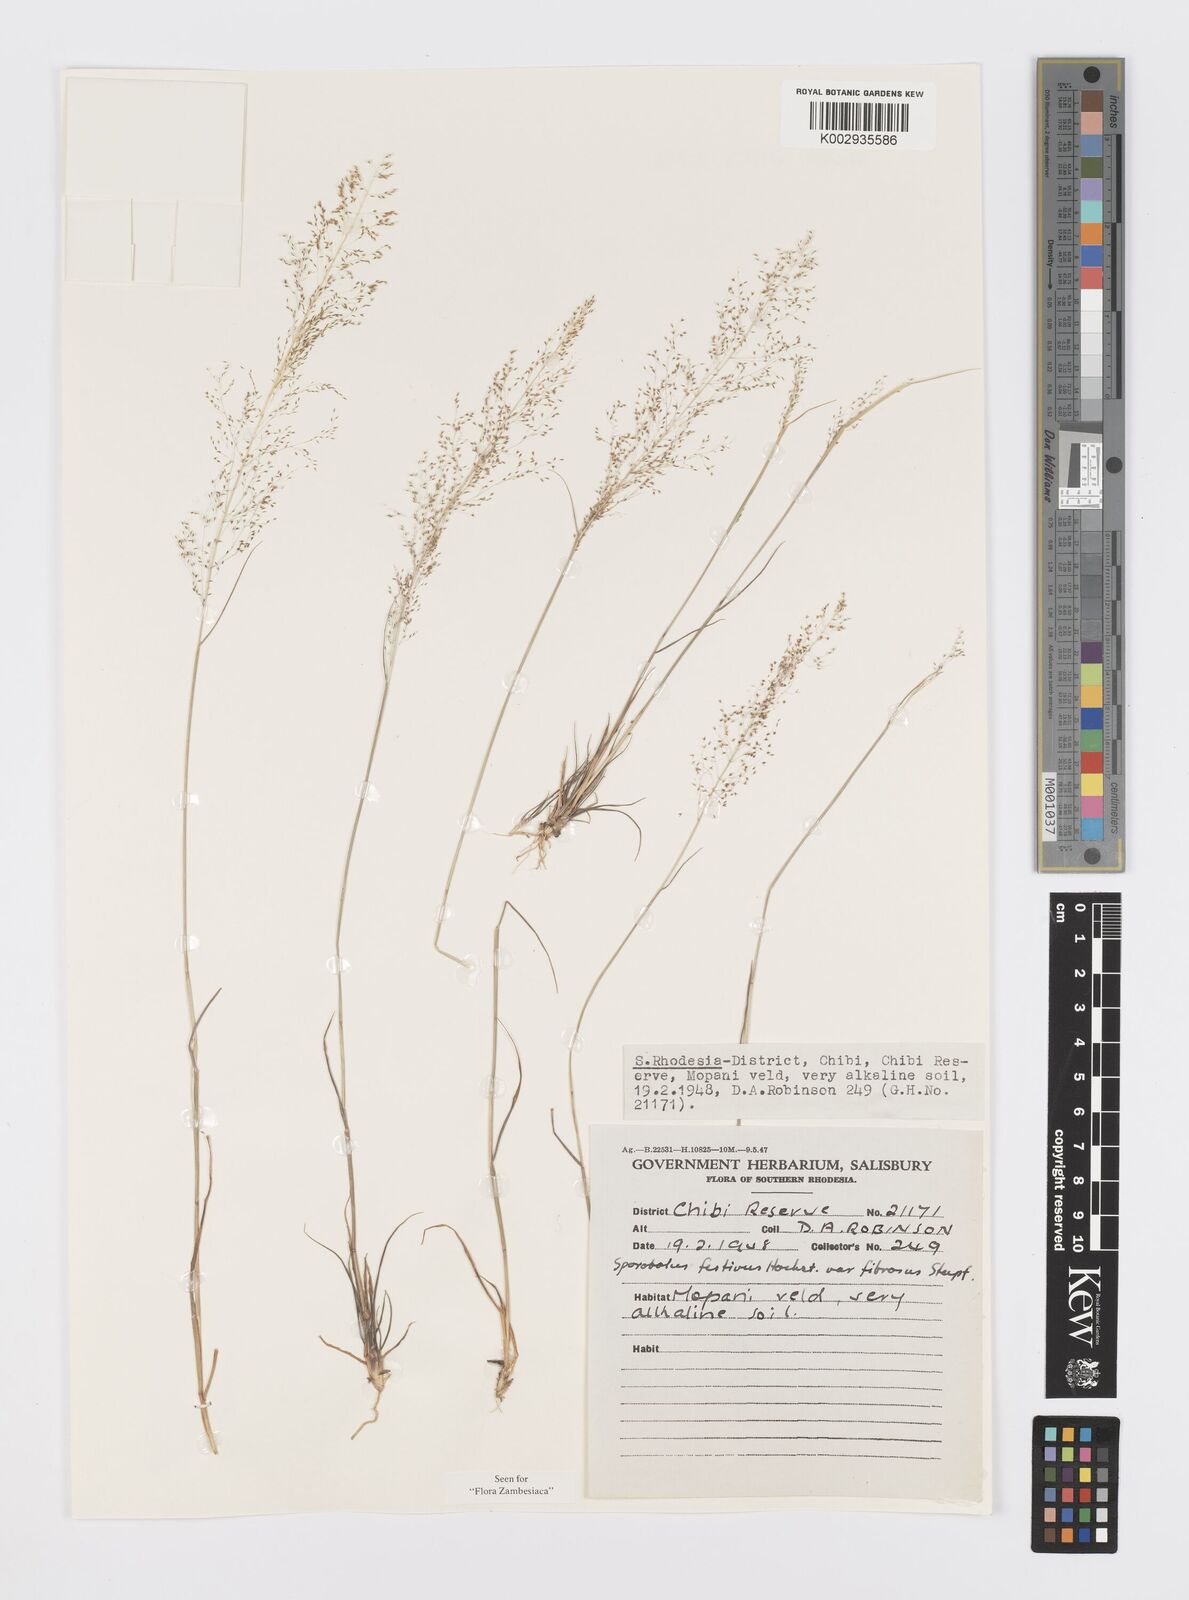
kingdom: Plantae
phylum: Tracheophyta
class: Liliopsida
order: Poales
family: Poaceae
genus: Sporobolus
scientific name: Sporobolus festivus
